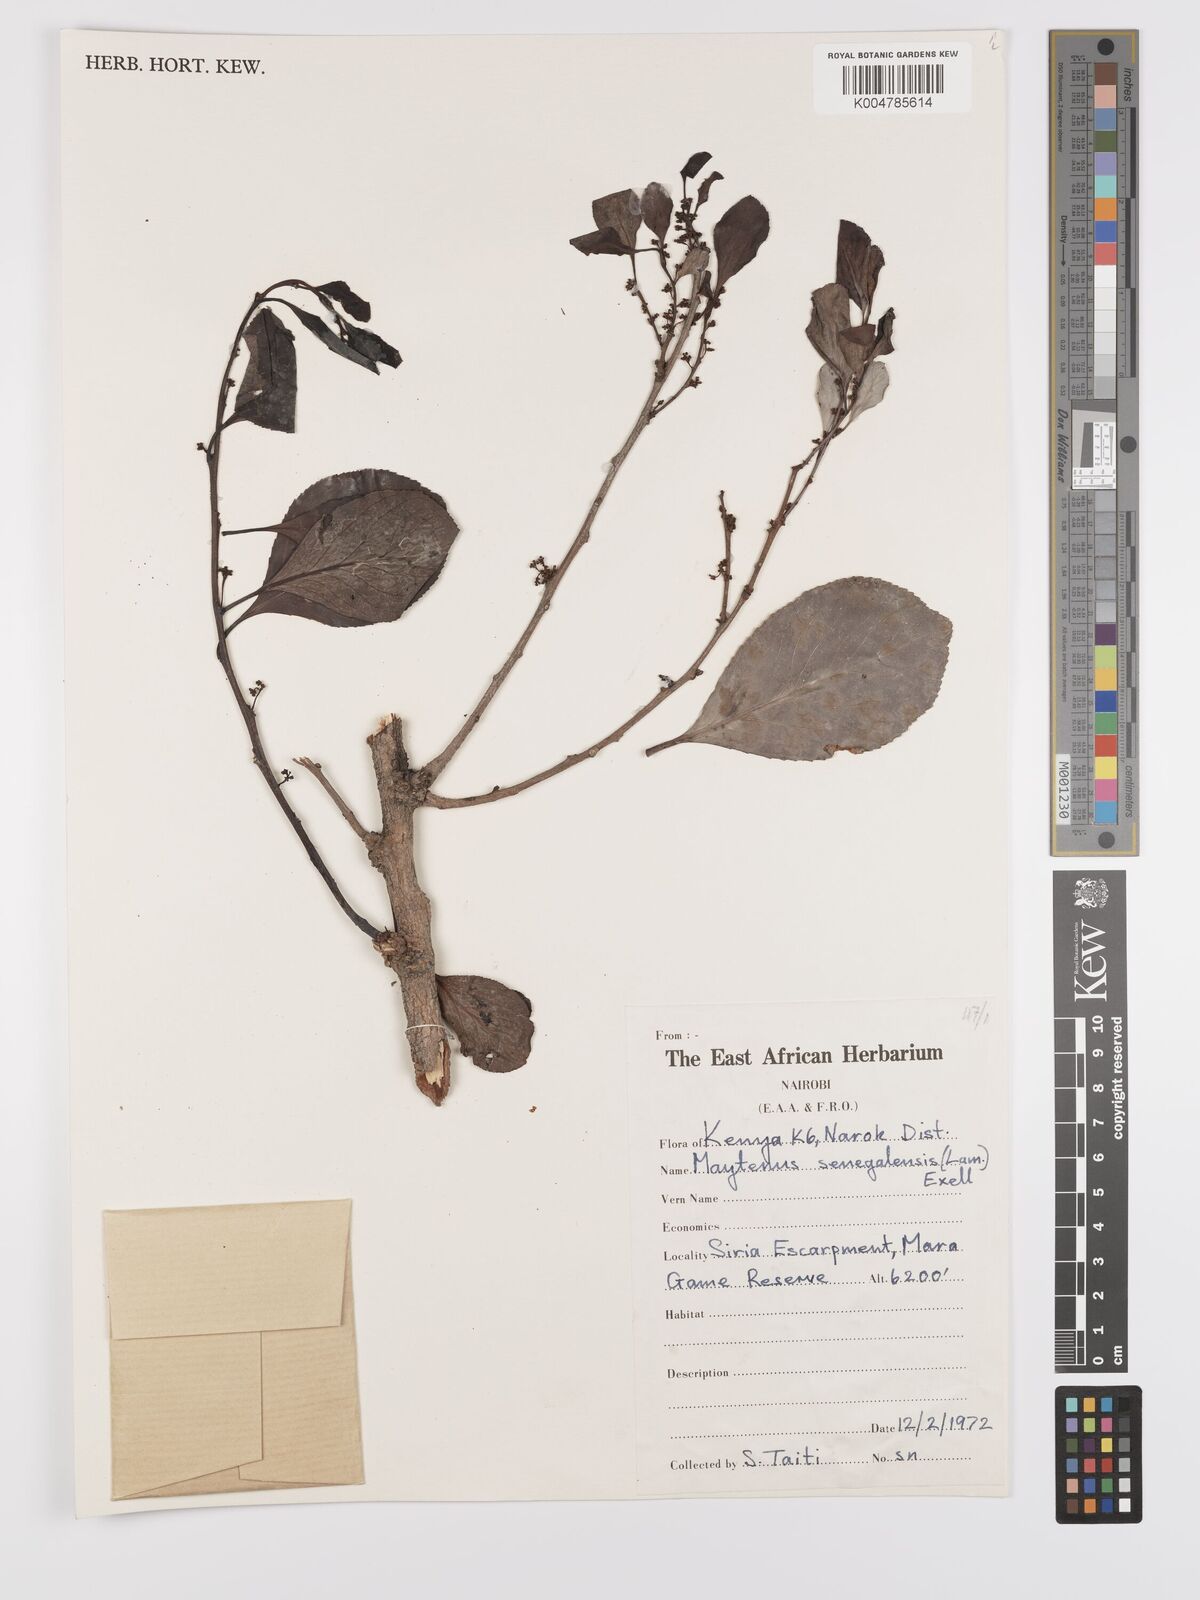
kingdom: Plantae
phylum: Tracheophyta
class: Magnoliopsida
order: Celastrales
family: Celastraceae
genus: Gymnosporia
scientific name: Gymnosporia senegalensis
